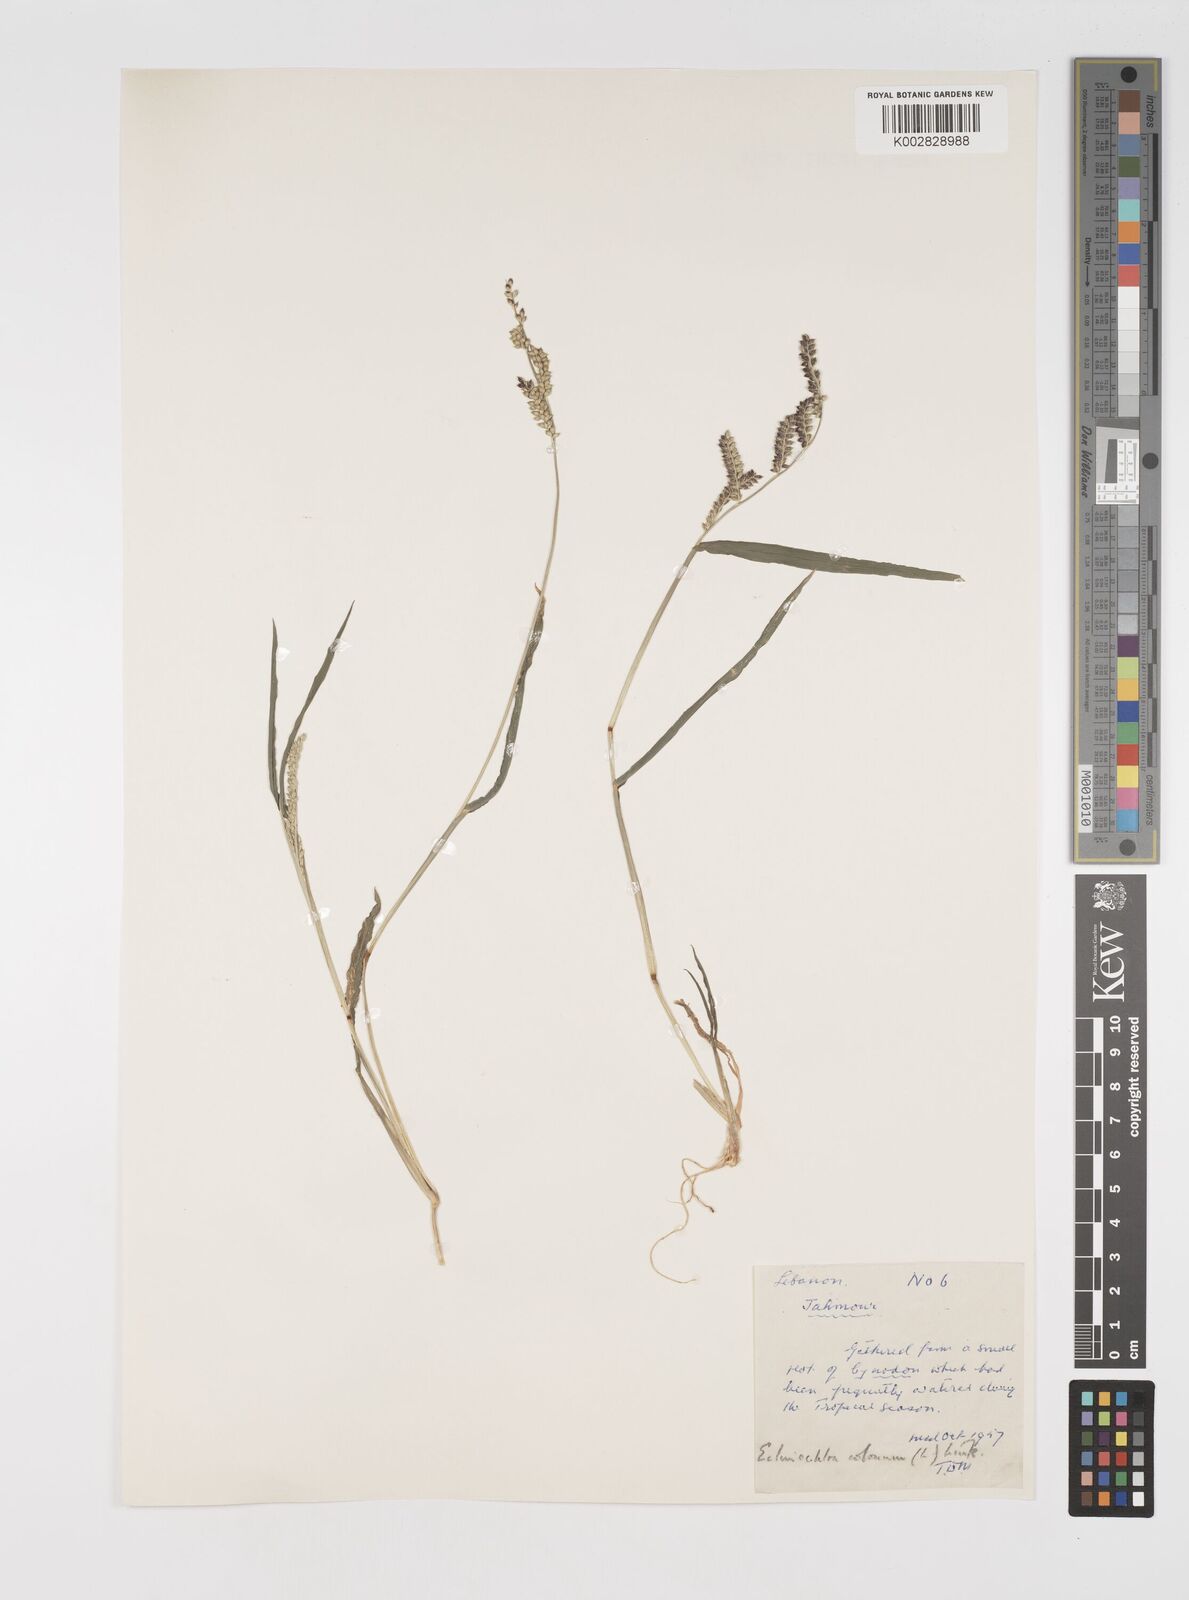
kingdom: Plantae
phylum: Tracheophyta
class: Liliopsida
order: Poales
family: Poaceae
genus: Echinochloa
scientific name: Echinochloa colonum
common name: Jungle rice
